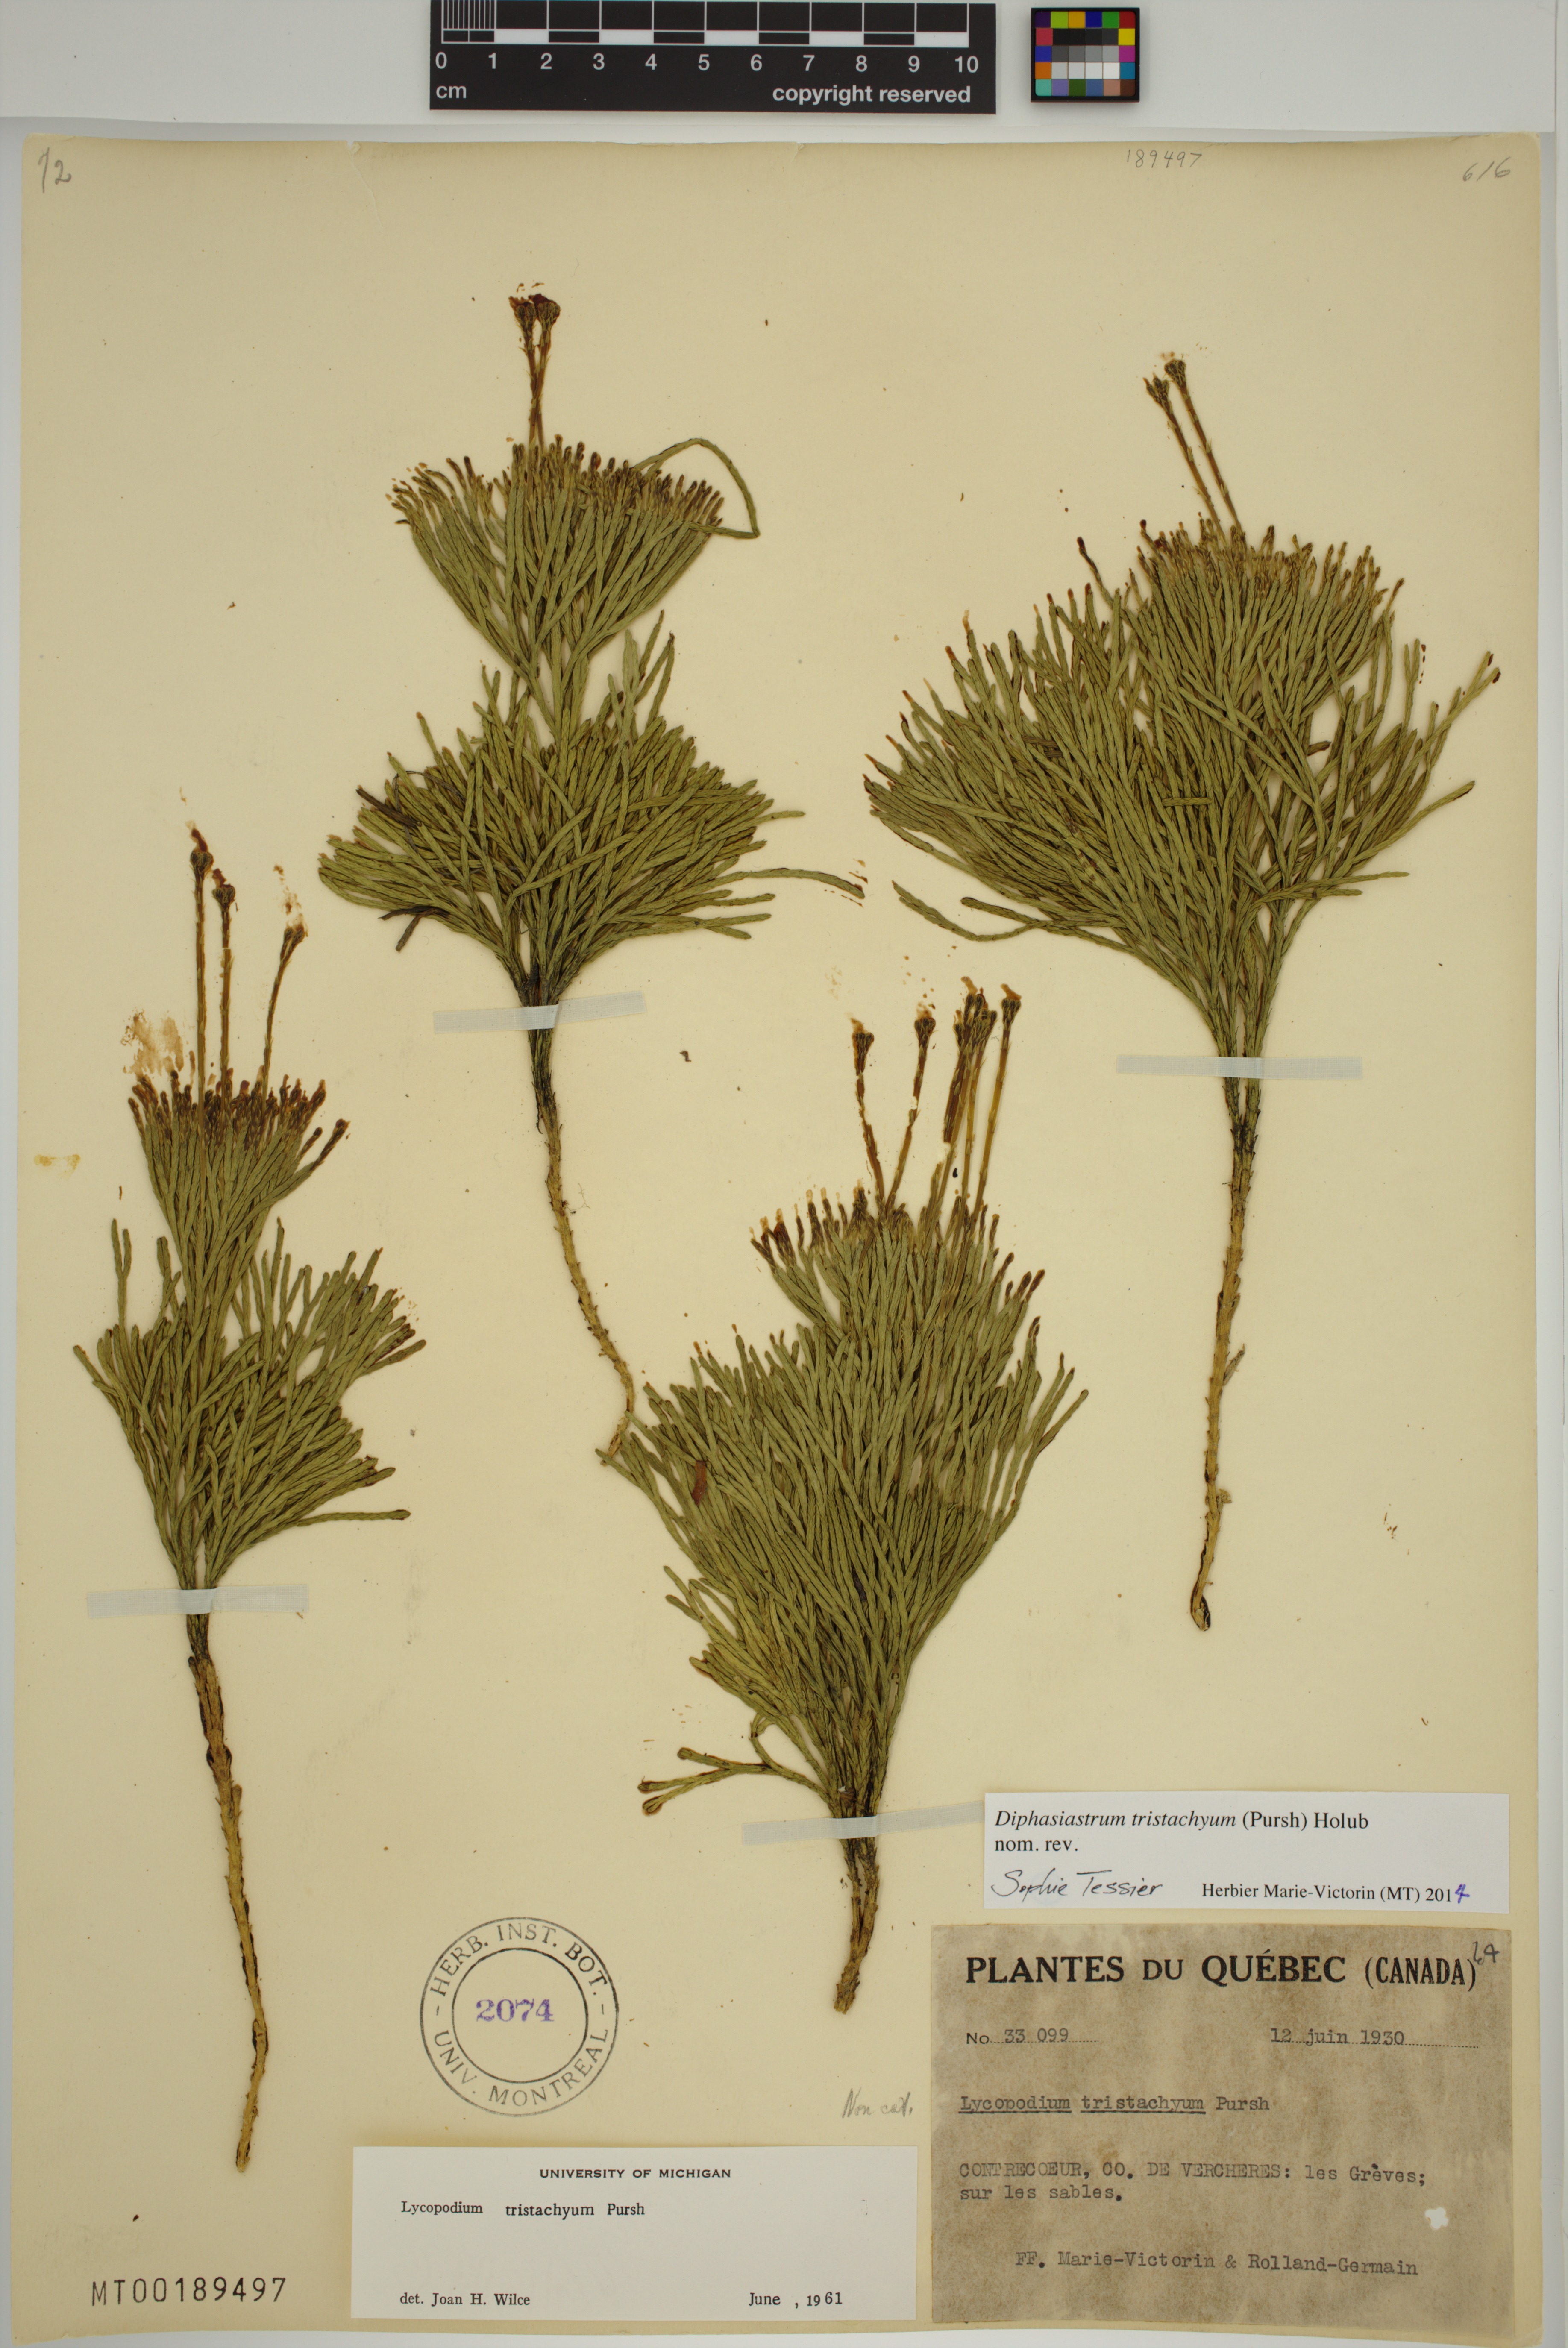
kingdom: Plantae
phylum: Tracheophyta
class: Lycopodiopsida
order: Lycopodiales
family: Lycopodiaceae
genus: Diphasiastrum
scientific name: Diphasiastrum tristachyum
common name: Blue ground-cedar
